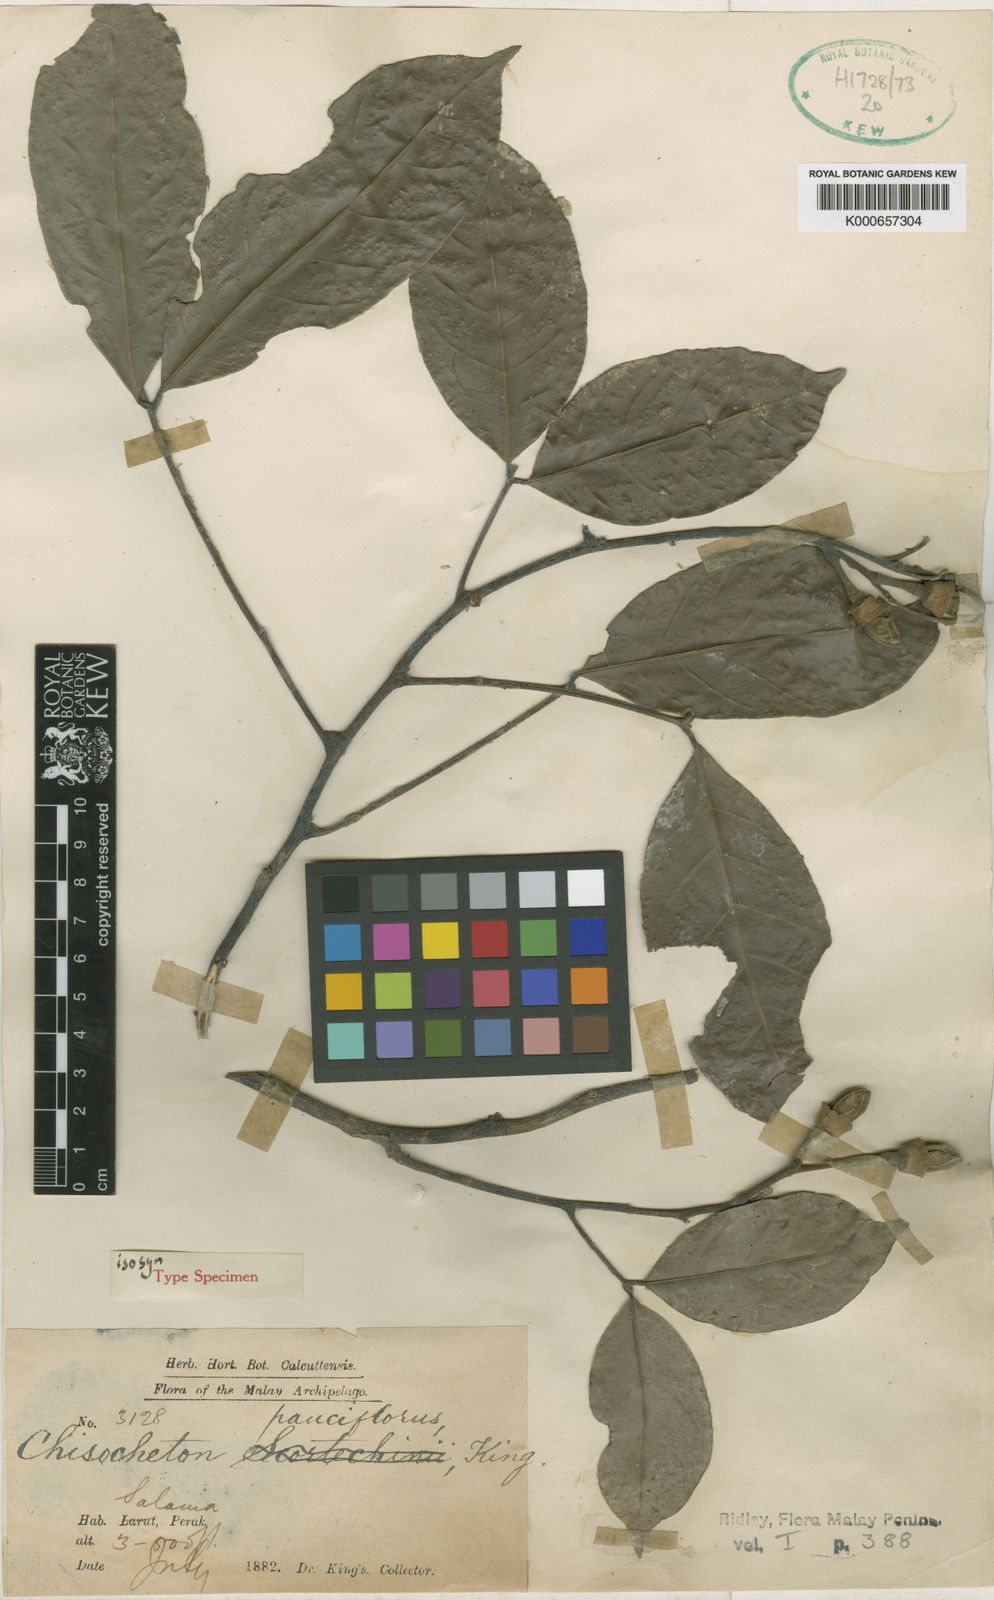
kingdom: Plantae
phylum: Tracheophyta
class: Magnoliopsida
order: Sapindales
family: Meliaceae
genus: Chisocheton
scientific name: Chisocheton pauciflorus
